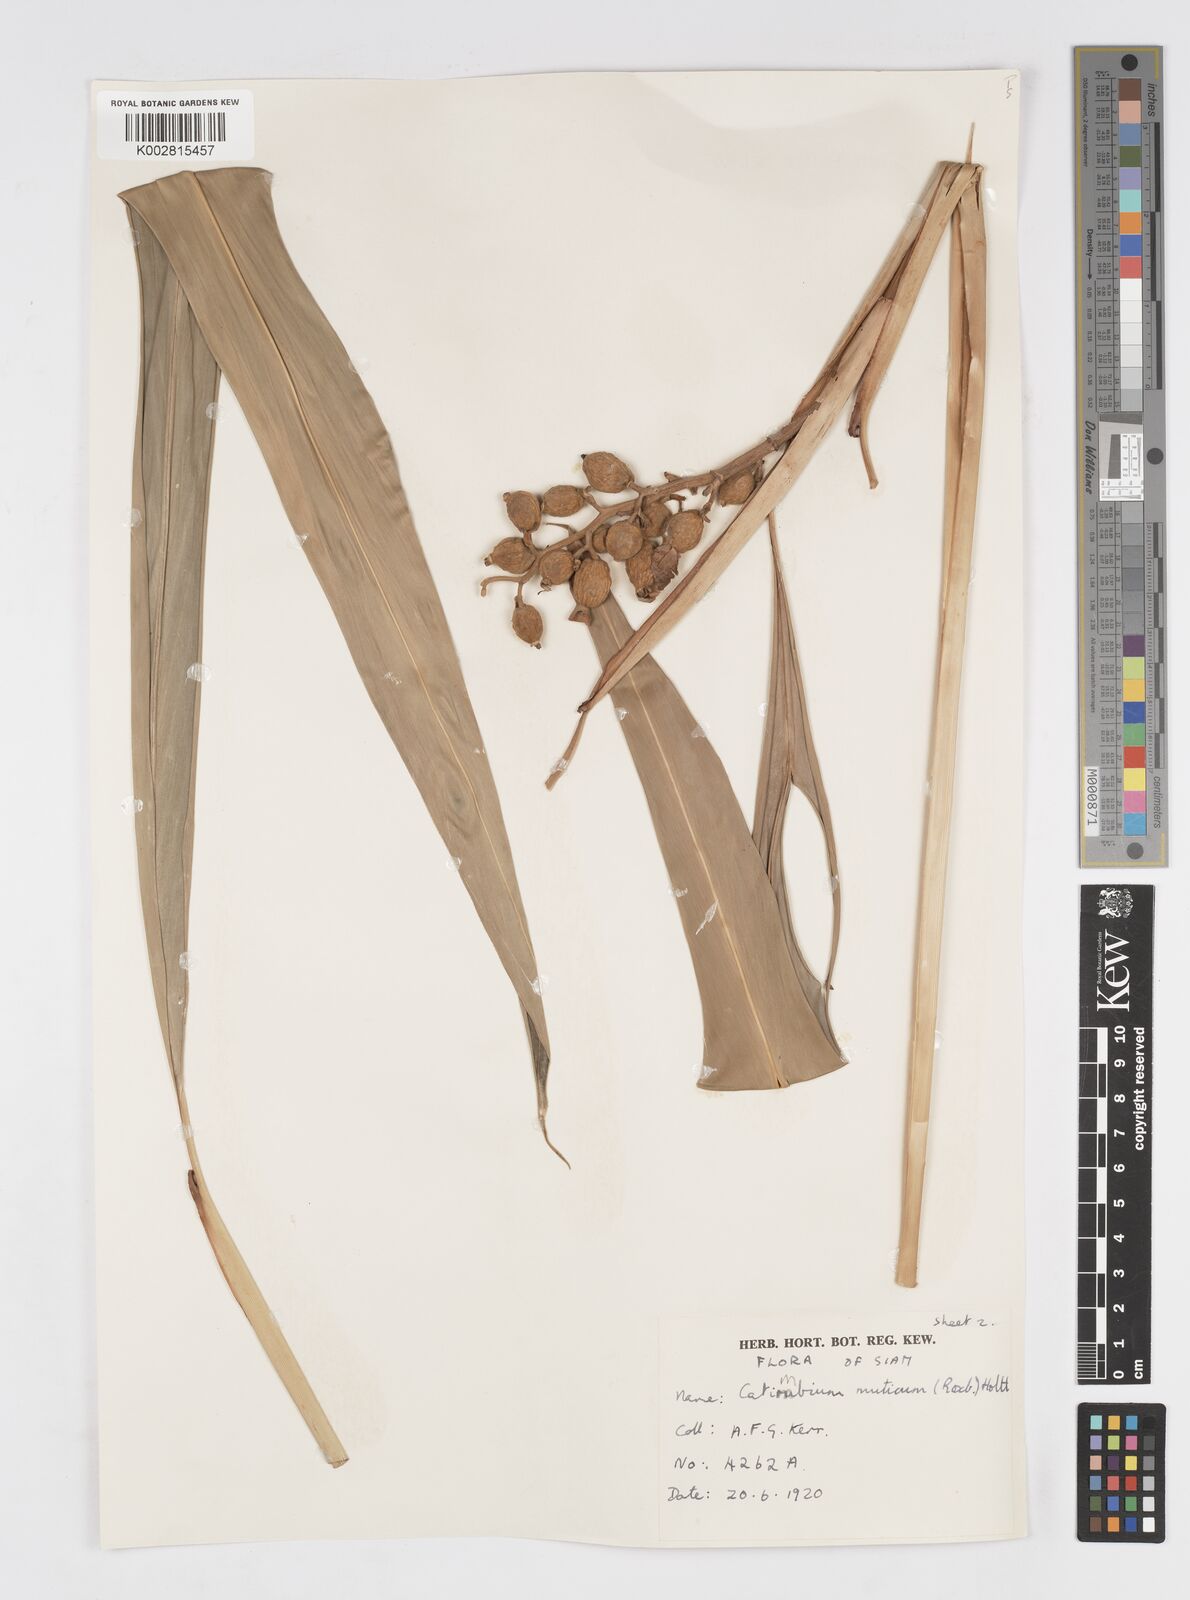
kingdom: Plantae
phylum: Tracheophyta
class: Liliopsida
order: Zingiberales
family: Zingiberaceae
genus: Alpinia
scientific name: Alpinia mutica
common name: Small shell ginger
